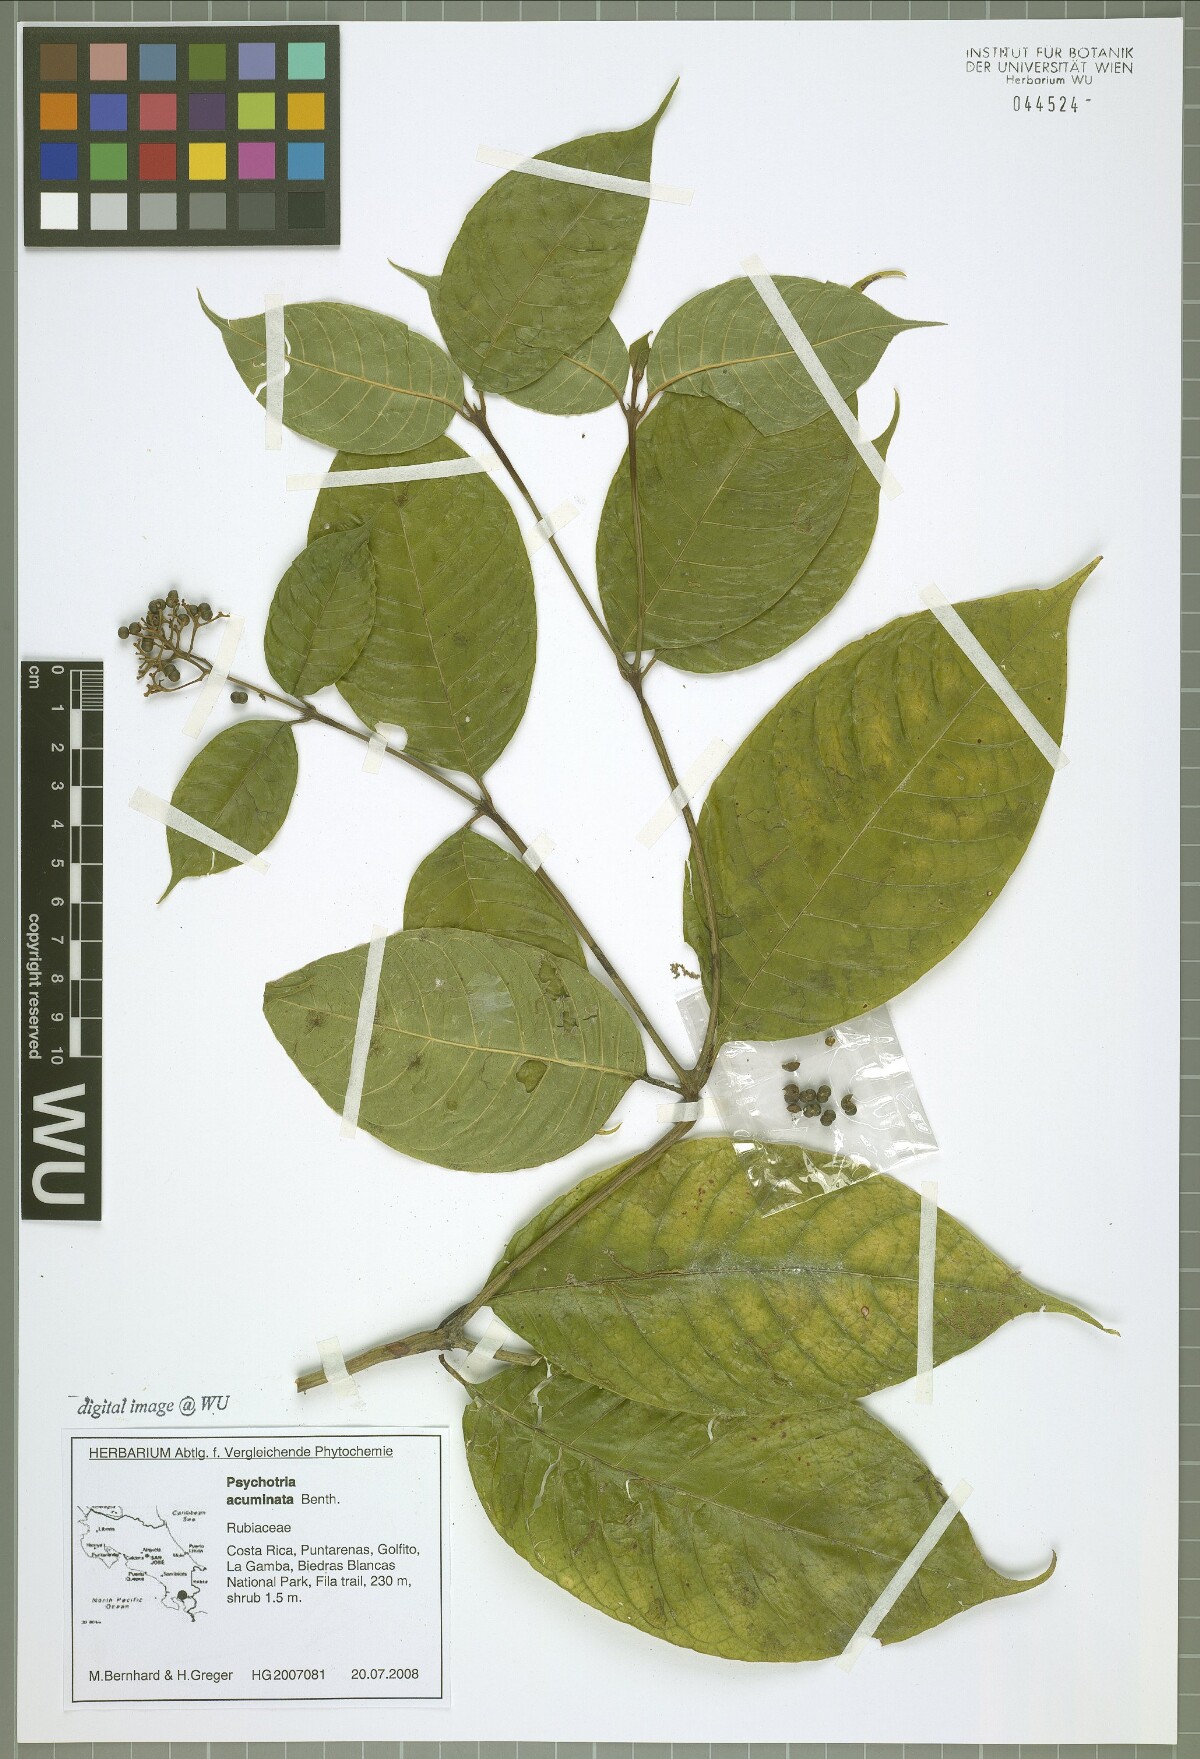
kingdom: Plantae
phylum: Tracheophyta
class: Magnoliopsida
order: Gentianales
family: Rubiaceae
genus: Palicourea
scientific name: Palicourea acuminata
